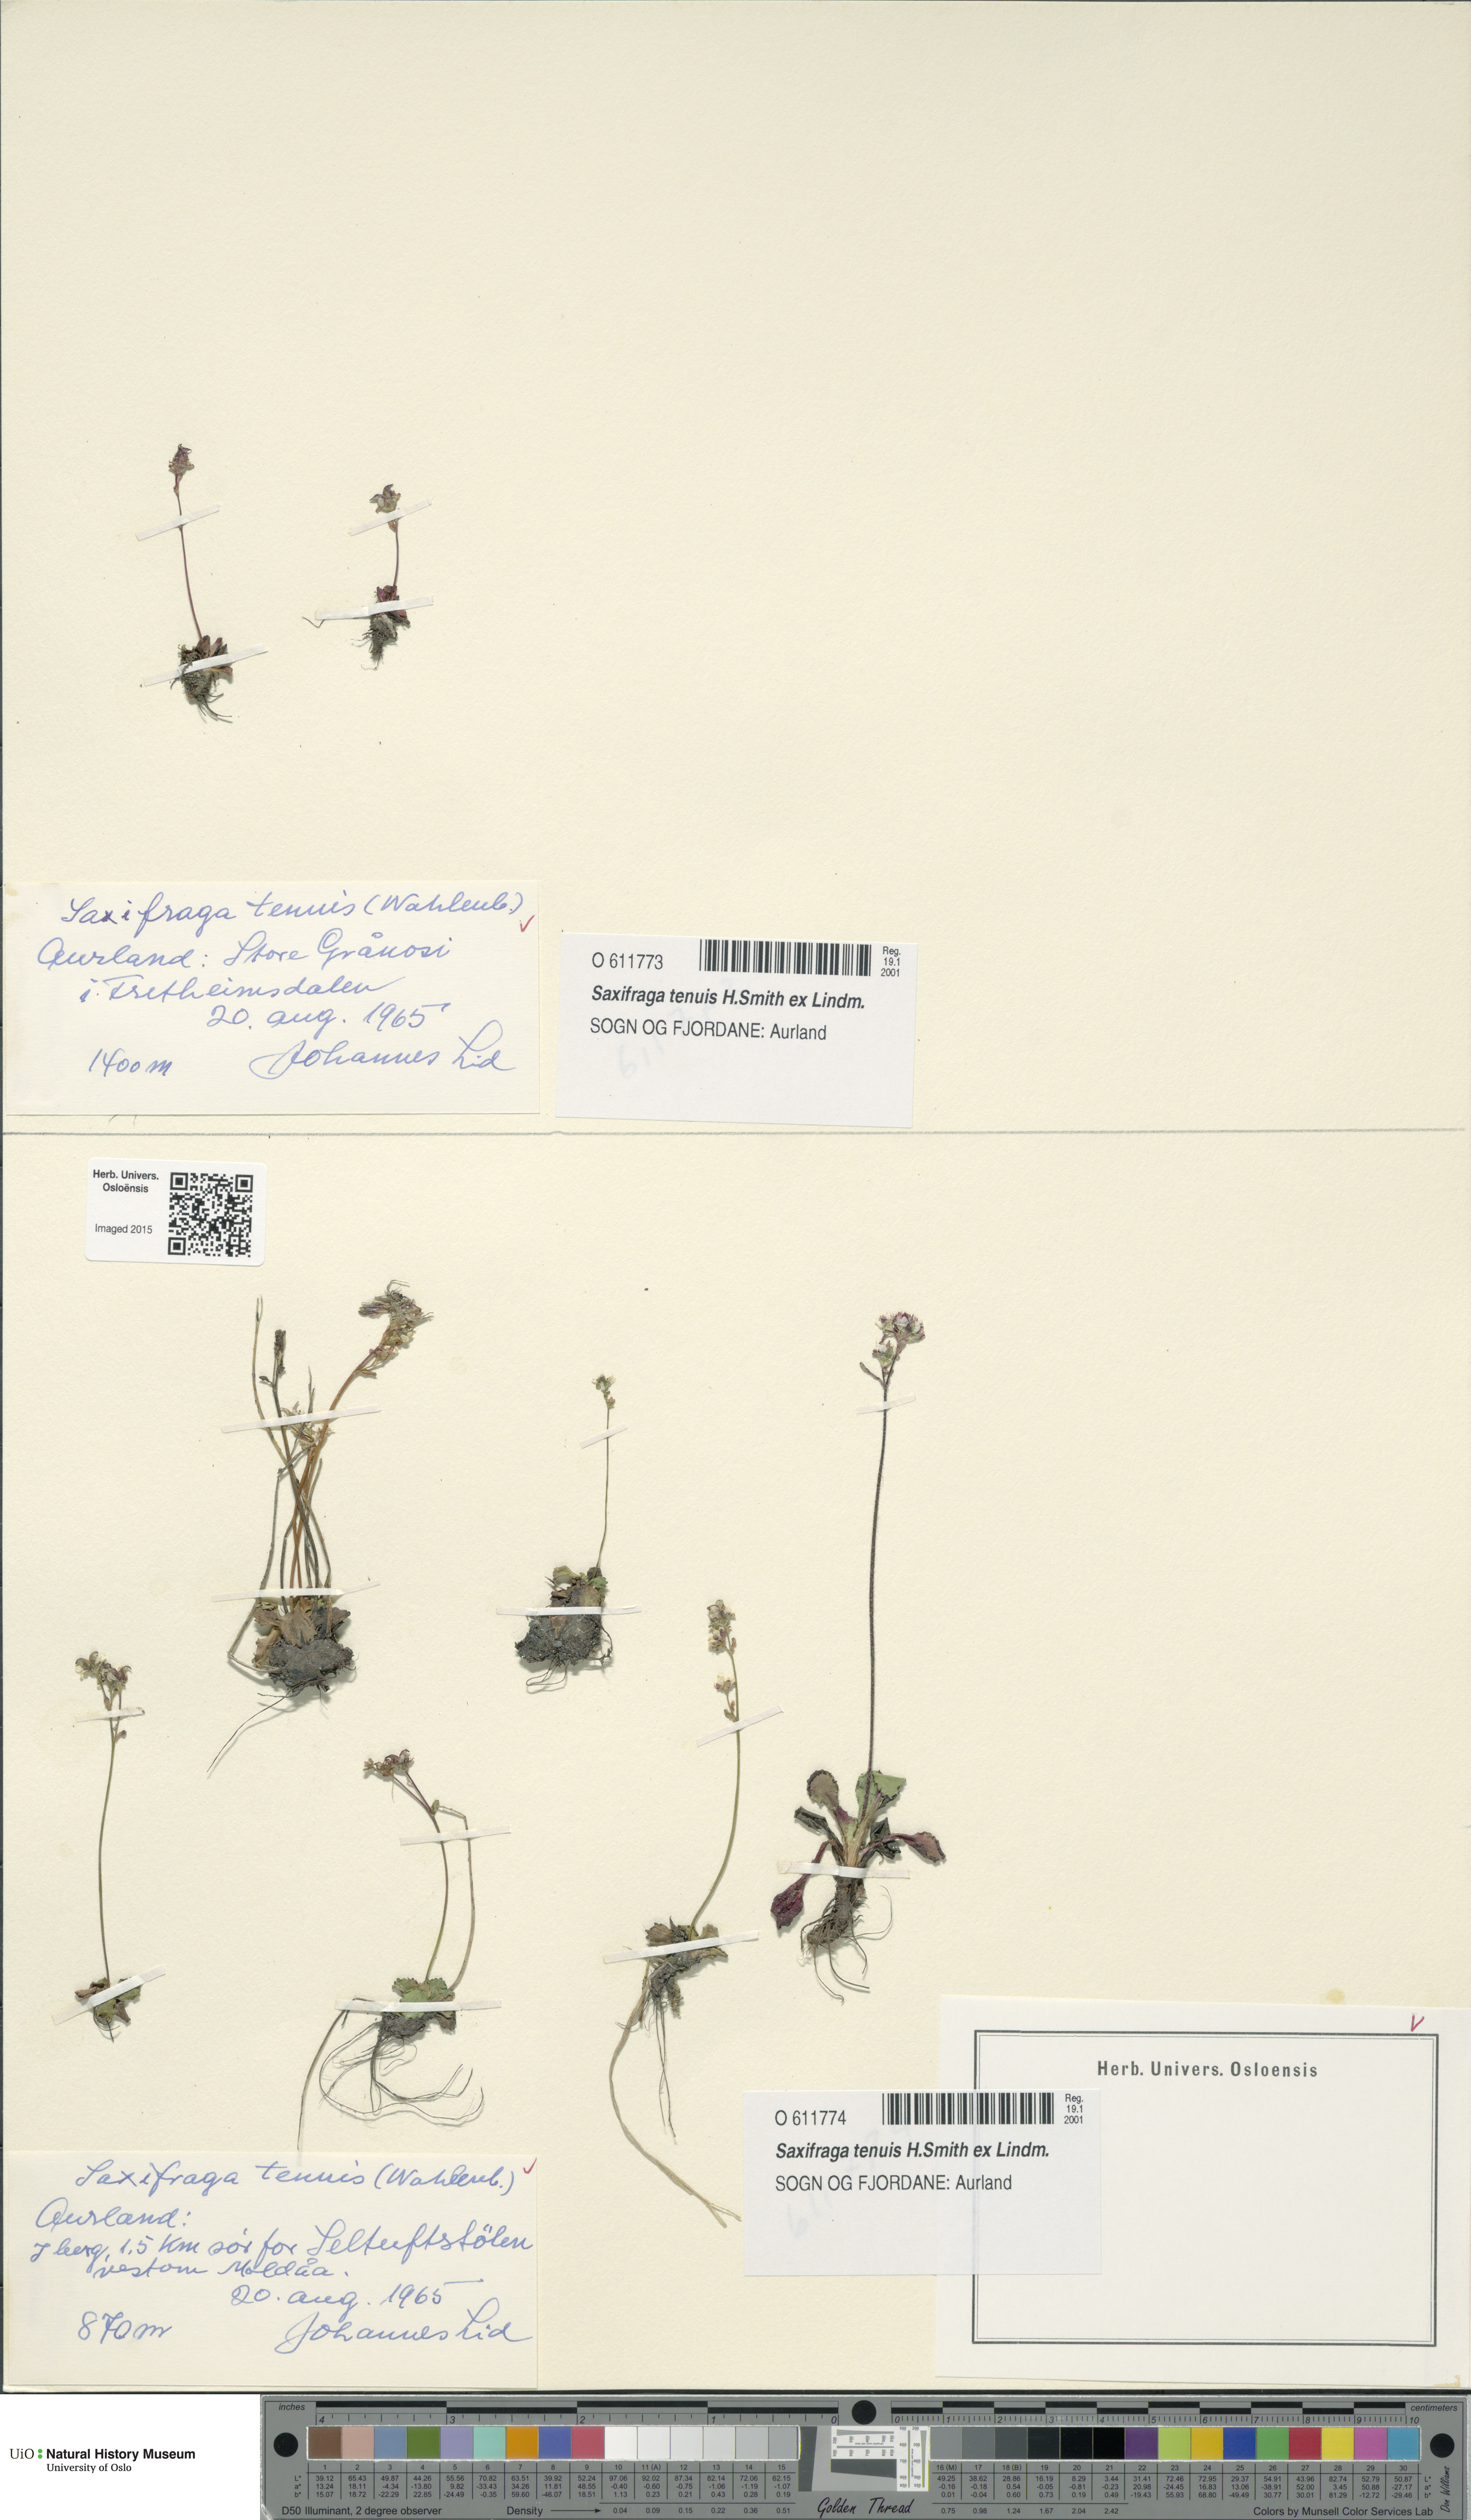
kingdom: Plantae
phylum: Tracheophyta
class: Magnoliopsida
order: Saxifragales
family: Saxifragaceae
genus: Micranthes
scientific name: Micranthes tenuis
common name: Ottertail pass saxifrage
